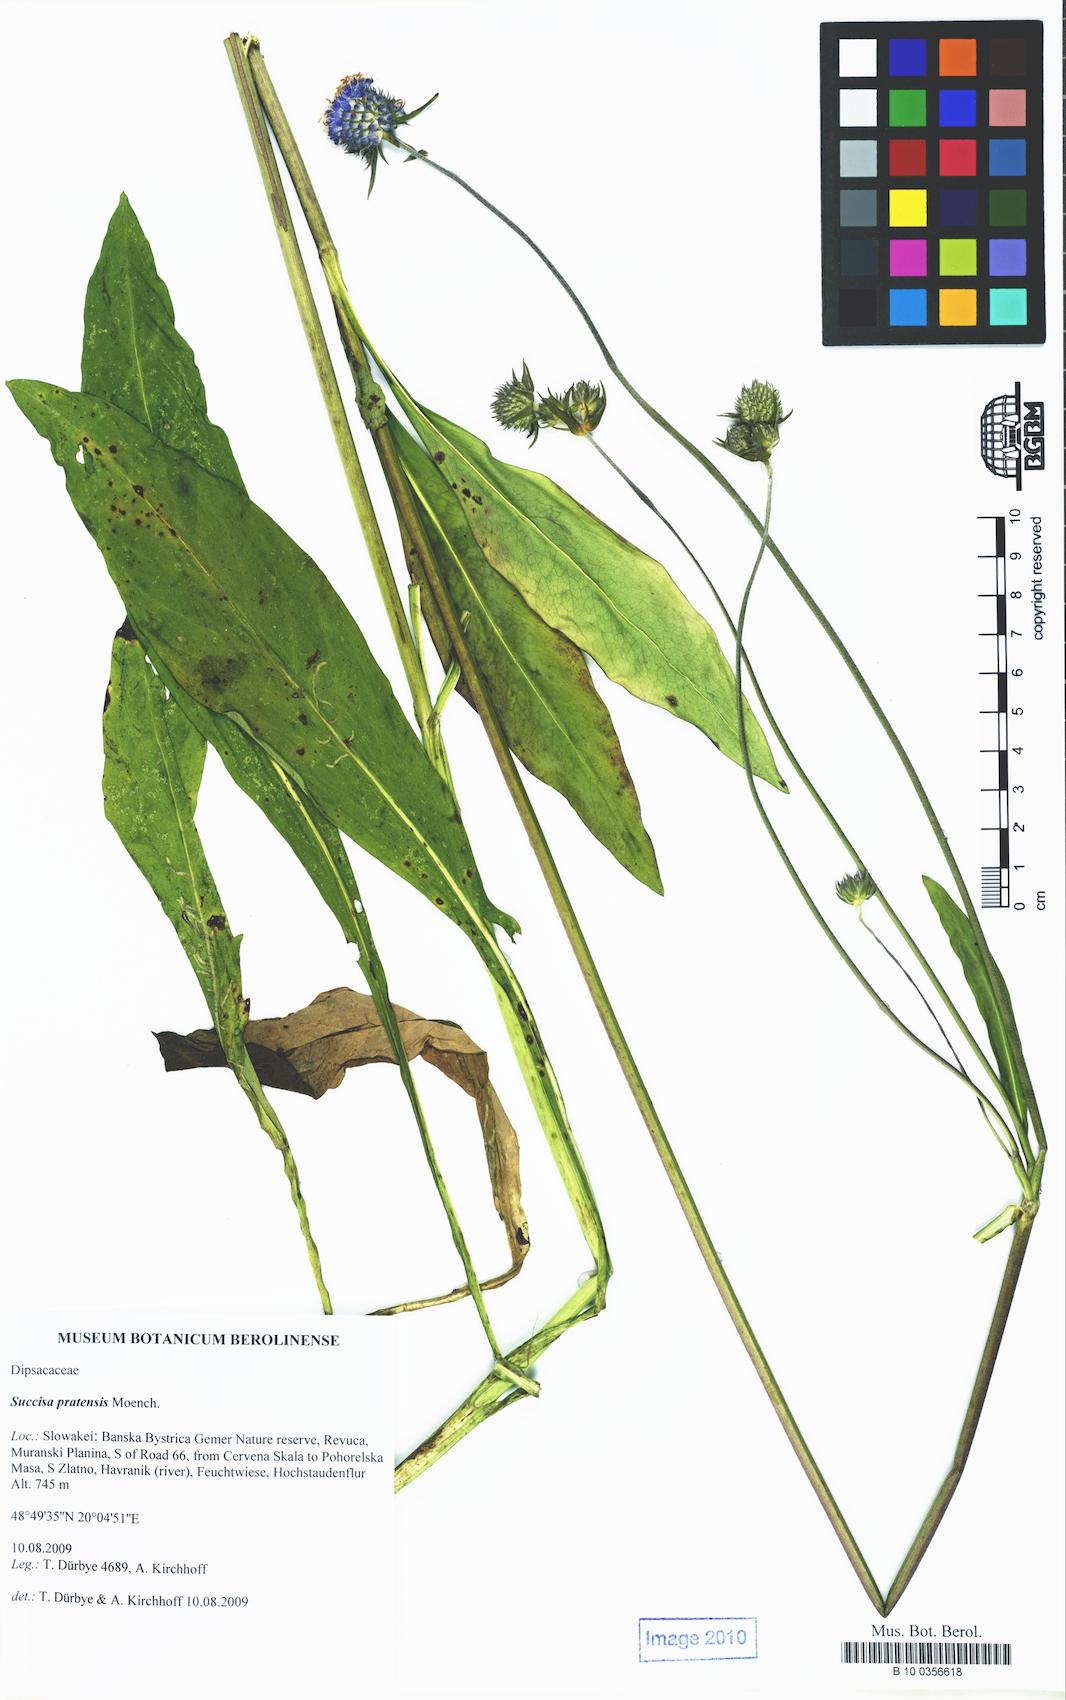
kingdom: Plantae
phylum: Tracheophyta
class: Magnoliopsida
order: Dipsacales
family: Caprifoliaceae
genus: Succisa
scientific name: Succisa pratensis
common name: Devil's-bit
